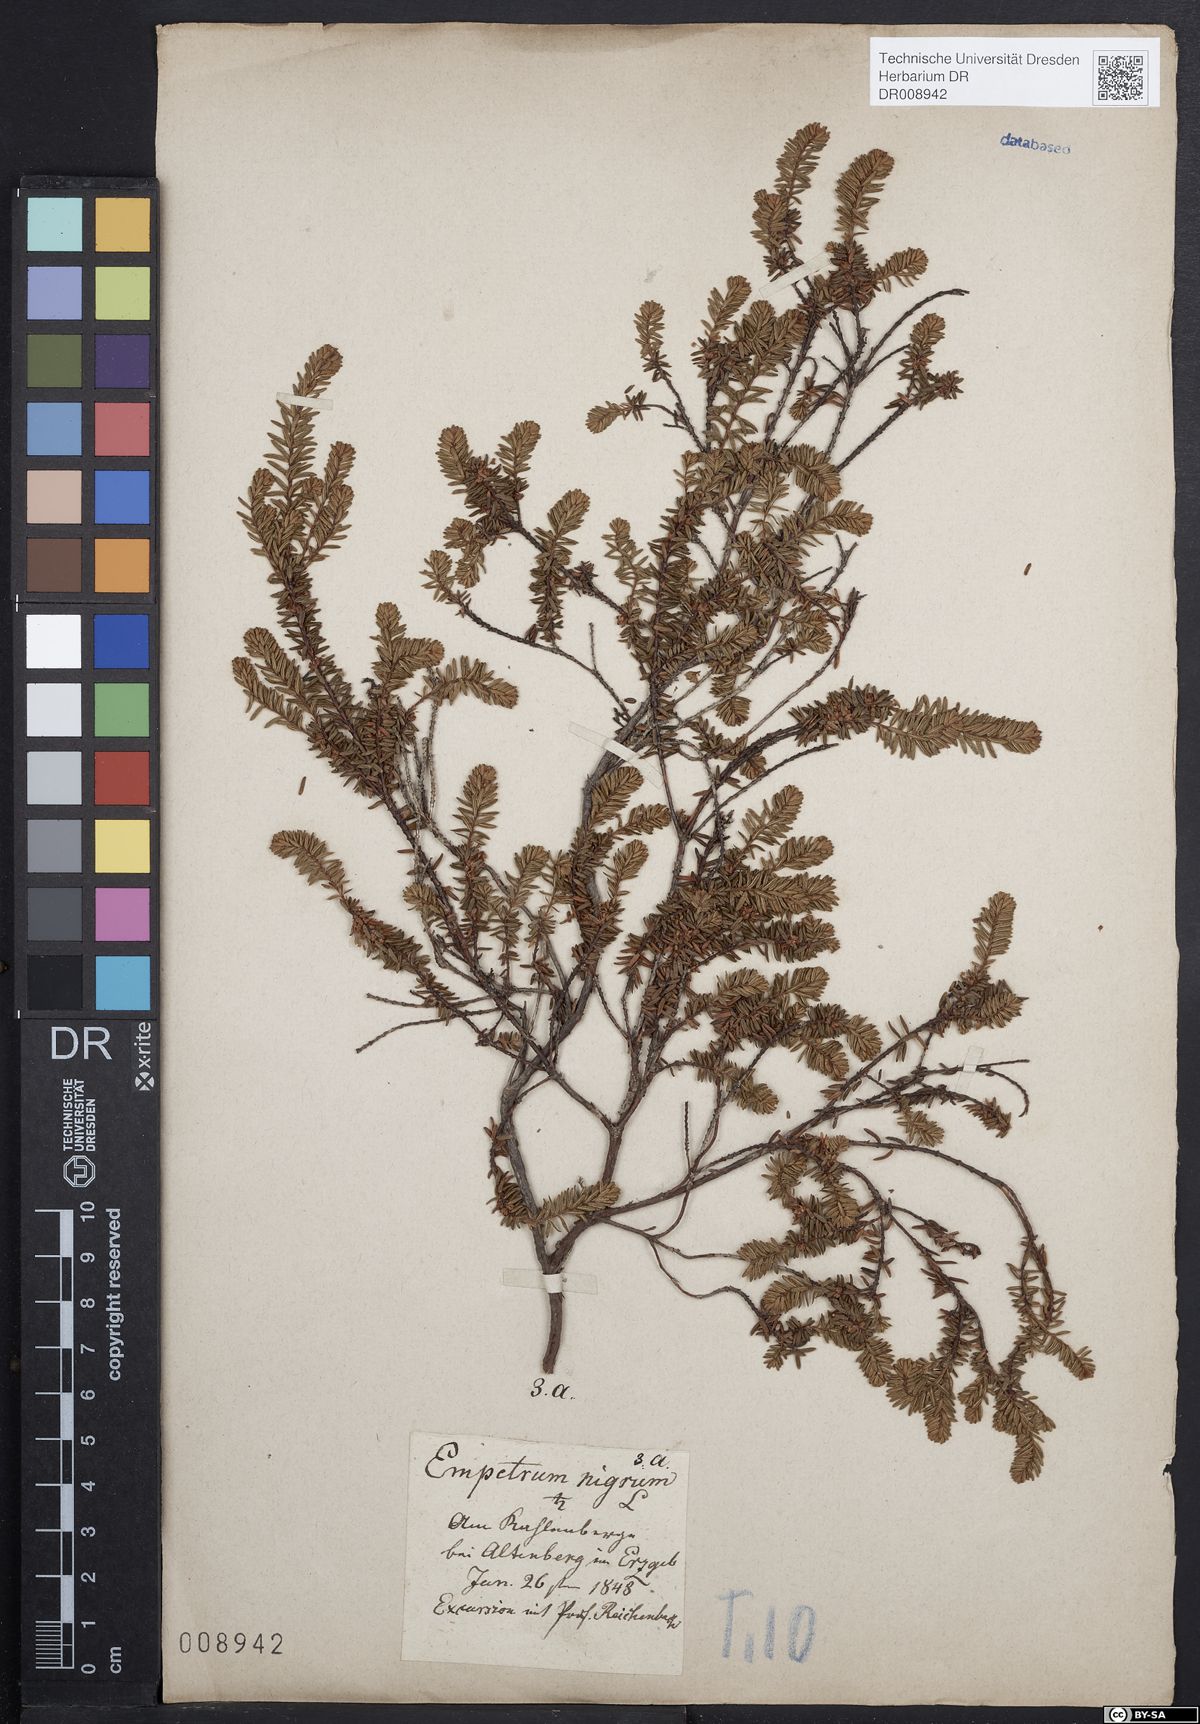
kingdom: Plantae
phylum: Tracheophyta
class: Magnoliopsida
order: Ericales
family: Ericaceae
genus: Empetrum
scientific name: Empetrum nigrum
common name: Black crowberry
